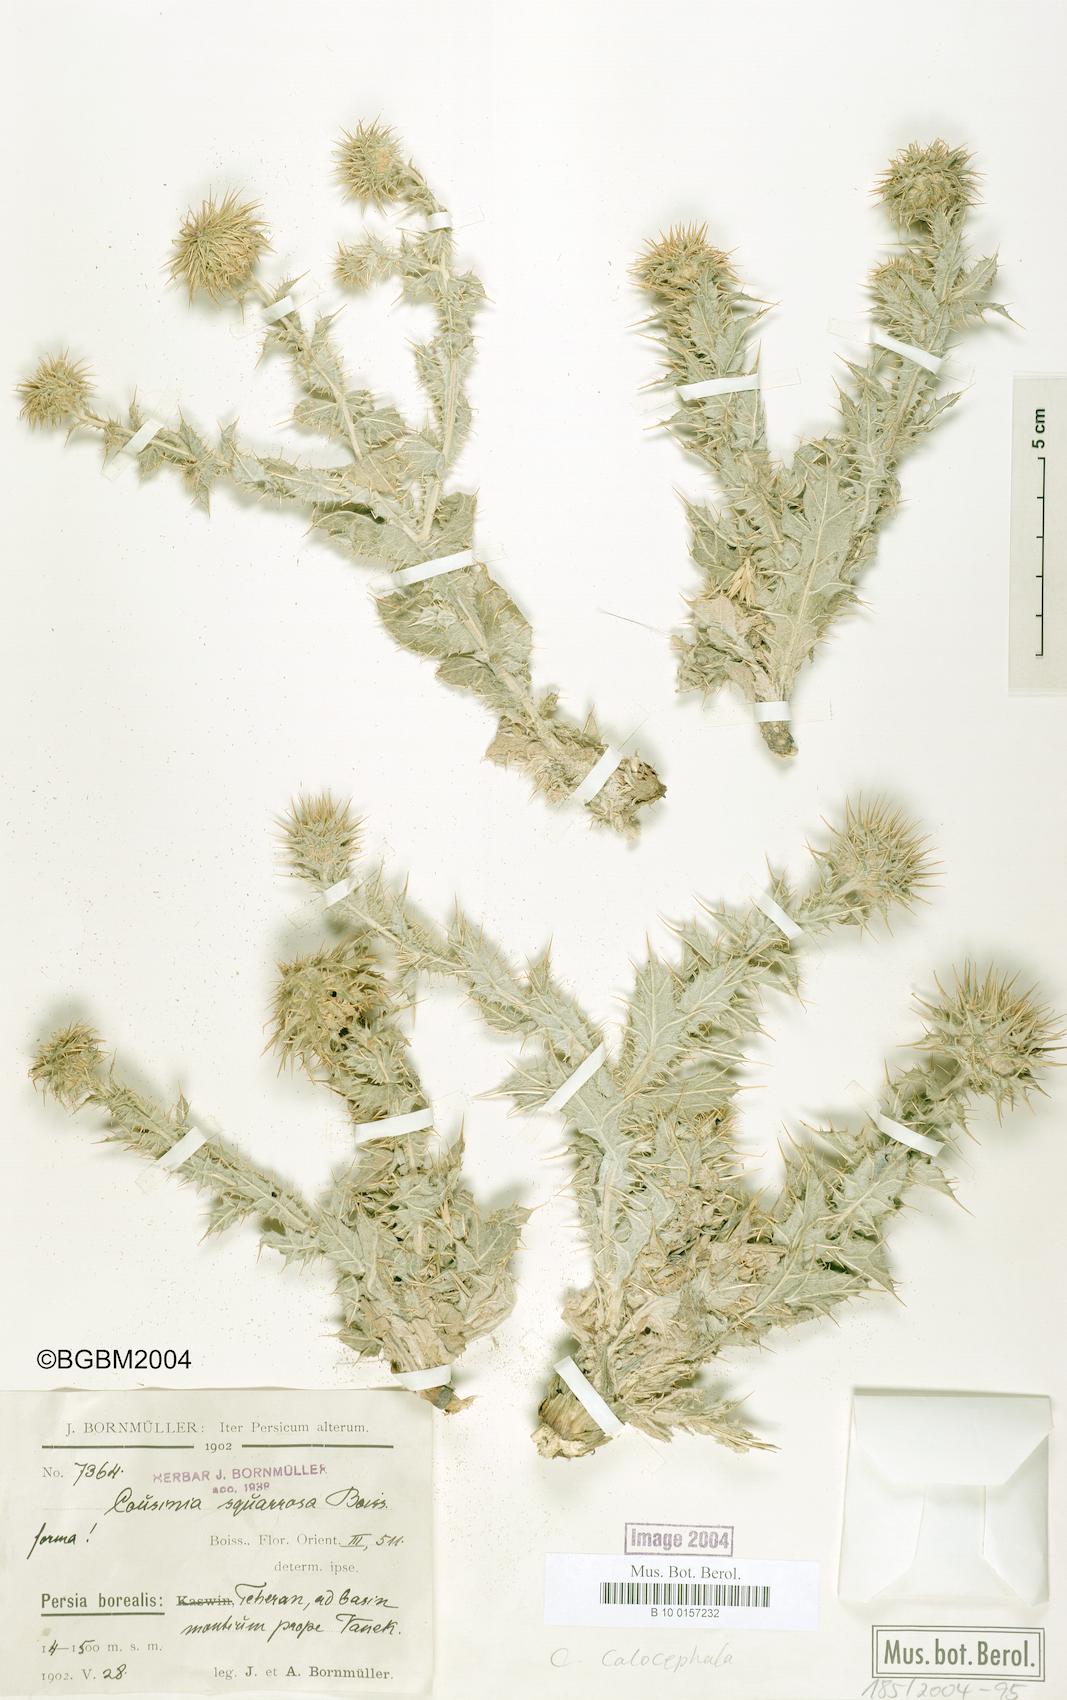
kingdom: Plantae
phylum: Tracheophyta
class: Magnoliopsida
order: Asterales
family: Asteraceae
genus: Cousinia
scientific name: Cousinia calocephala
